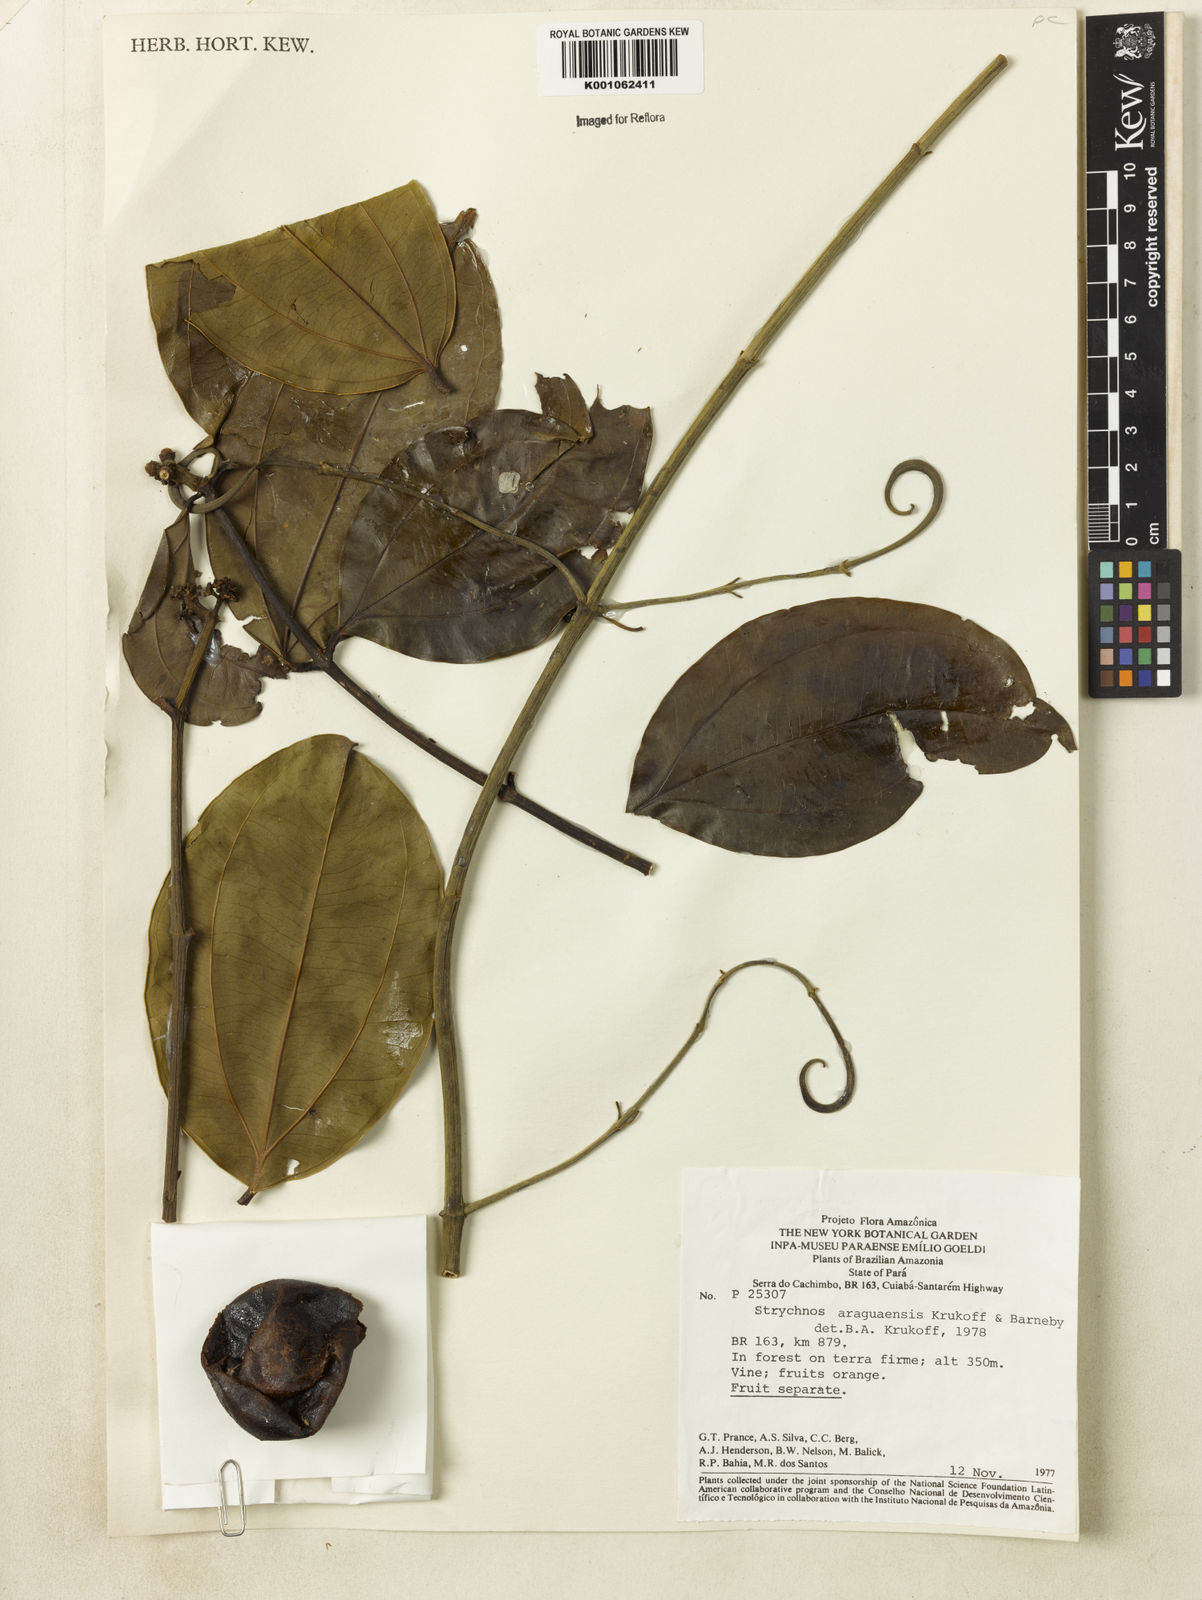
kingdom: Plantae
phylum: Tracheophyta
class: Magnoliopsida
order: Gentianales
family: Loganiaceae
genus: Strychnos
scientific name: Strychnos araguaensis
